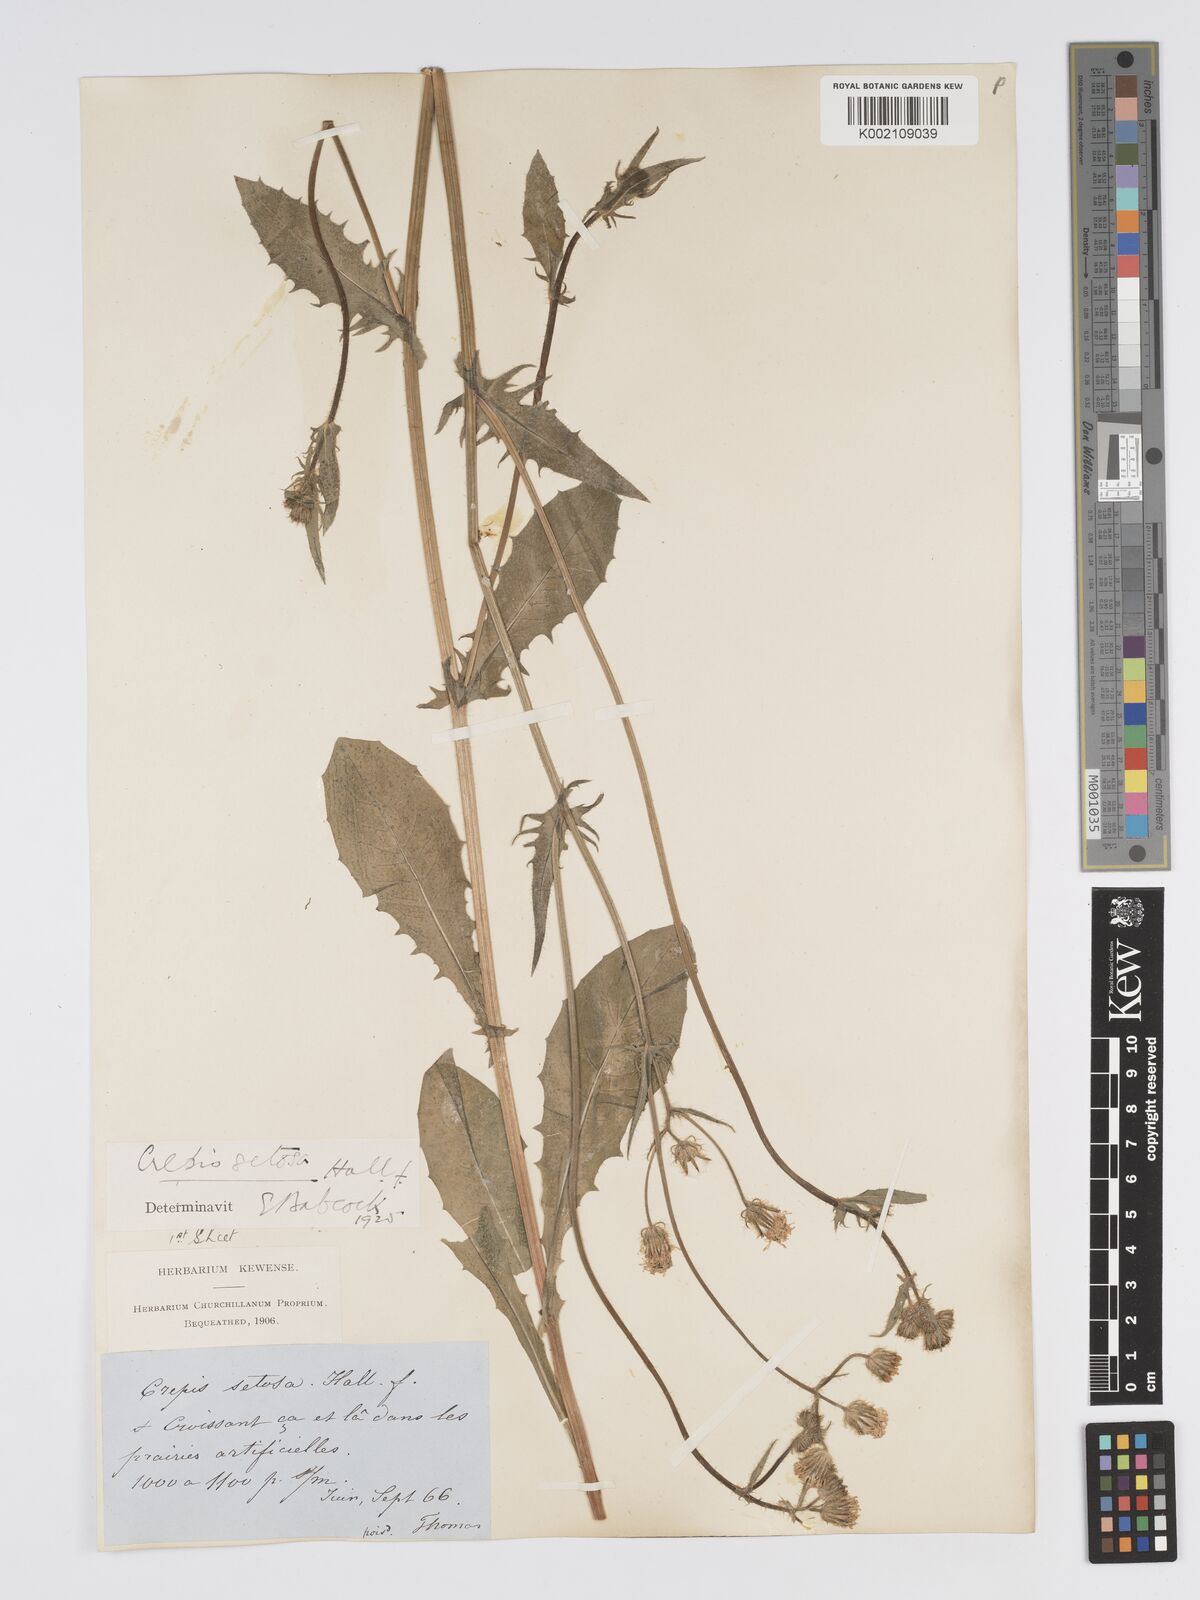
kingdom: Plantae
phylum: Tracheophyta
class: Magnoliopsida
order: Asterales
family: Asteraceae
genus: Crepis
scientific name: Crepis setosa
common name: Bristly hawk's-beard
